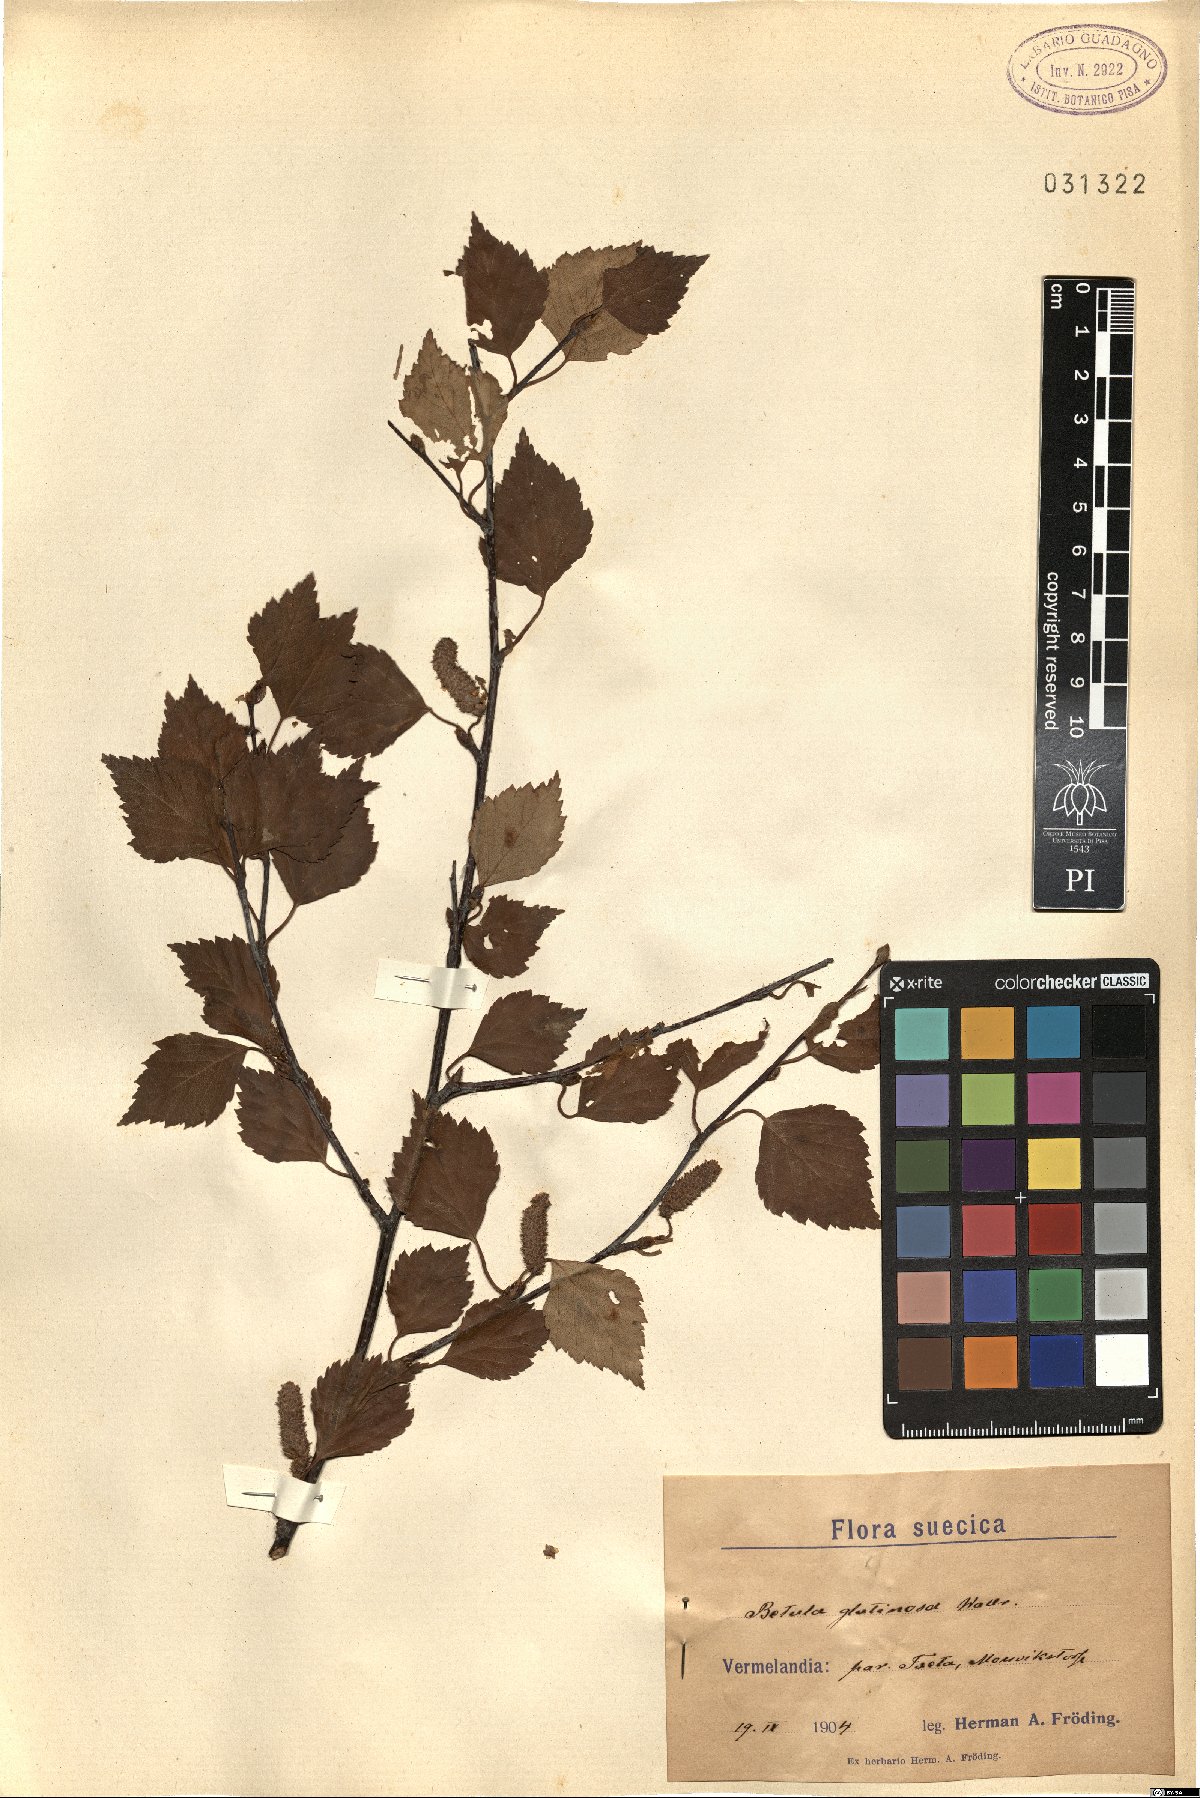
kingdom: Plantae
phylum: Tracheophyta
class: Magnoliopsida
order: Fagales
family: Betulaceae
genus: Betula
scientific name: Betula pubescens
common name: Downy birch
